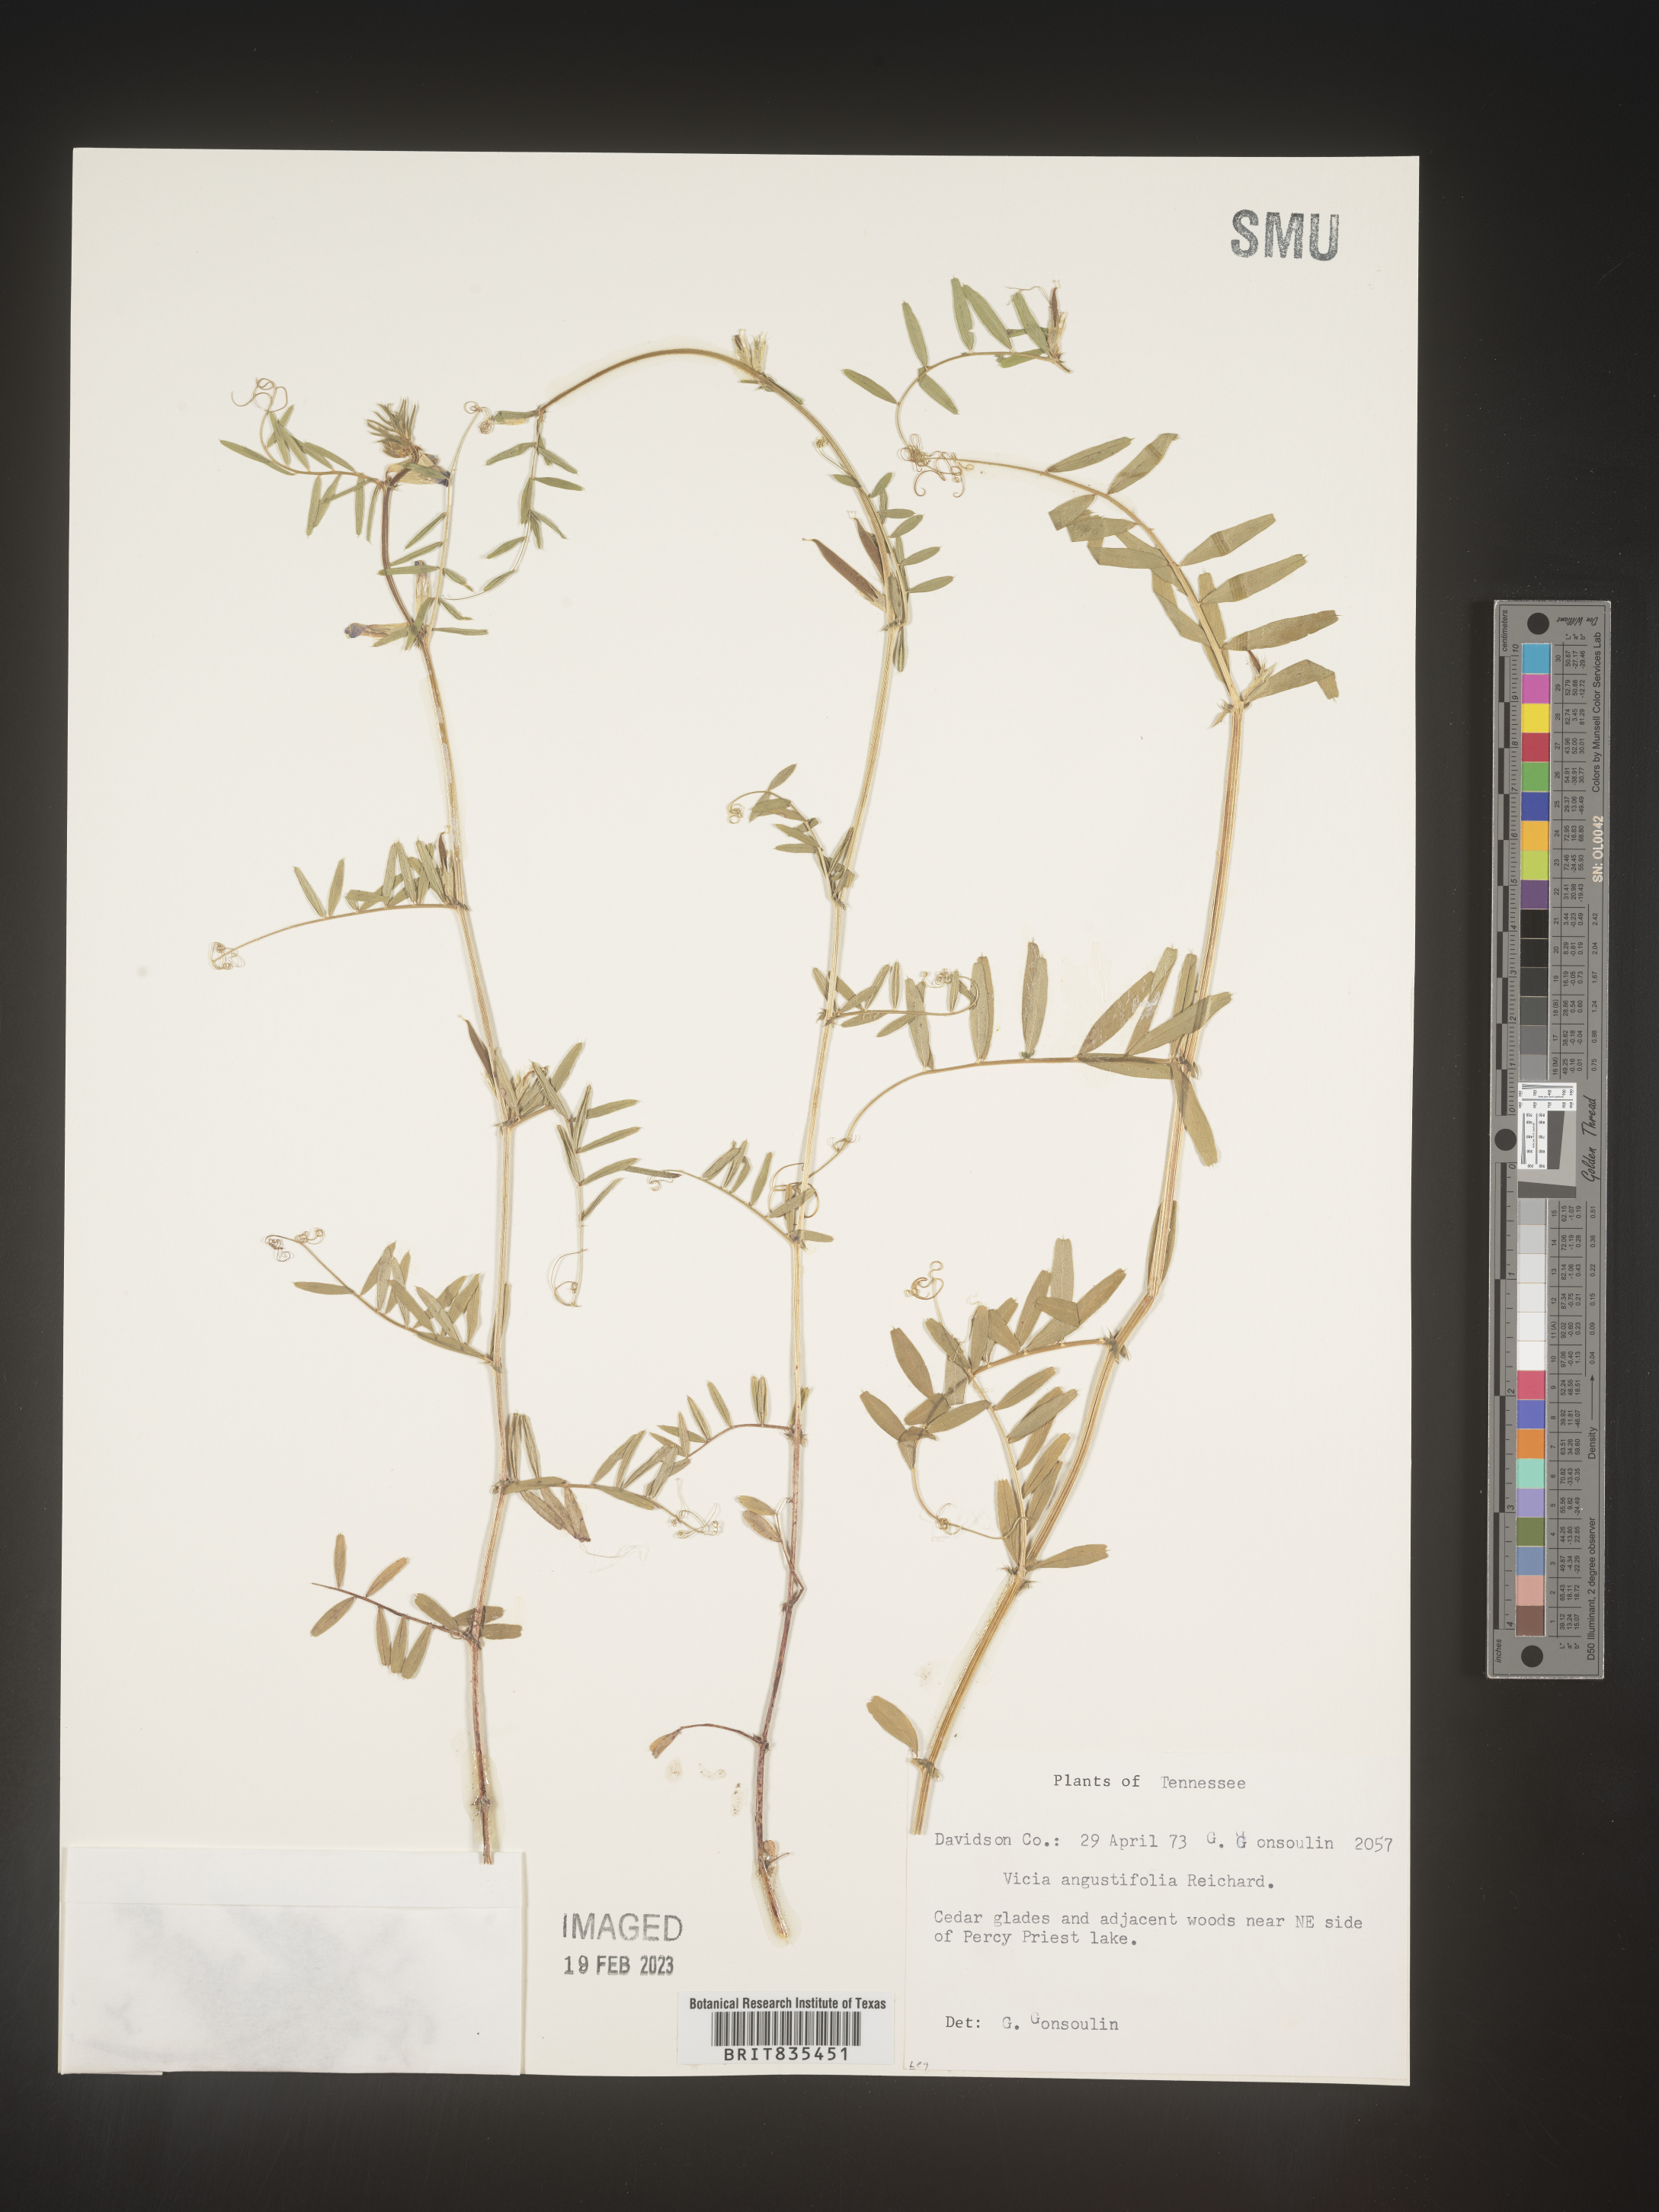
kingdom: Plantae
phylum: Tracheophyta
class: Magnoliopsida
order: Fabales
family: Fabaceae
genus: Vicia
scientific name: Vicia sativa
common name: Garden vetch
